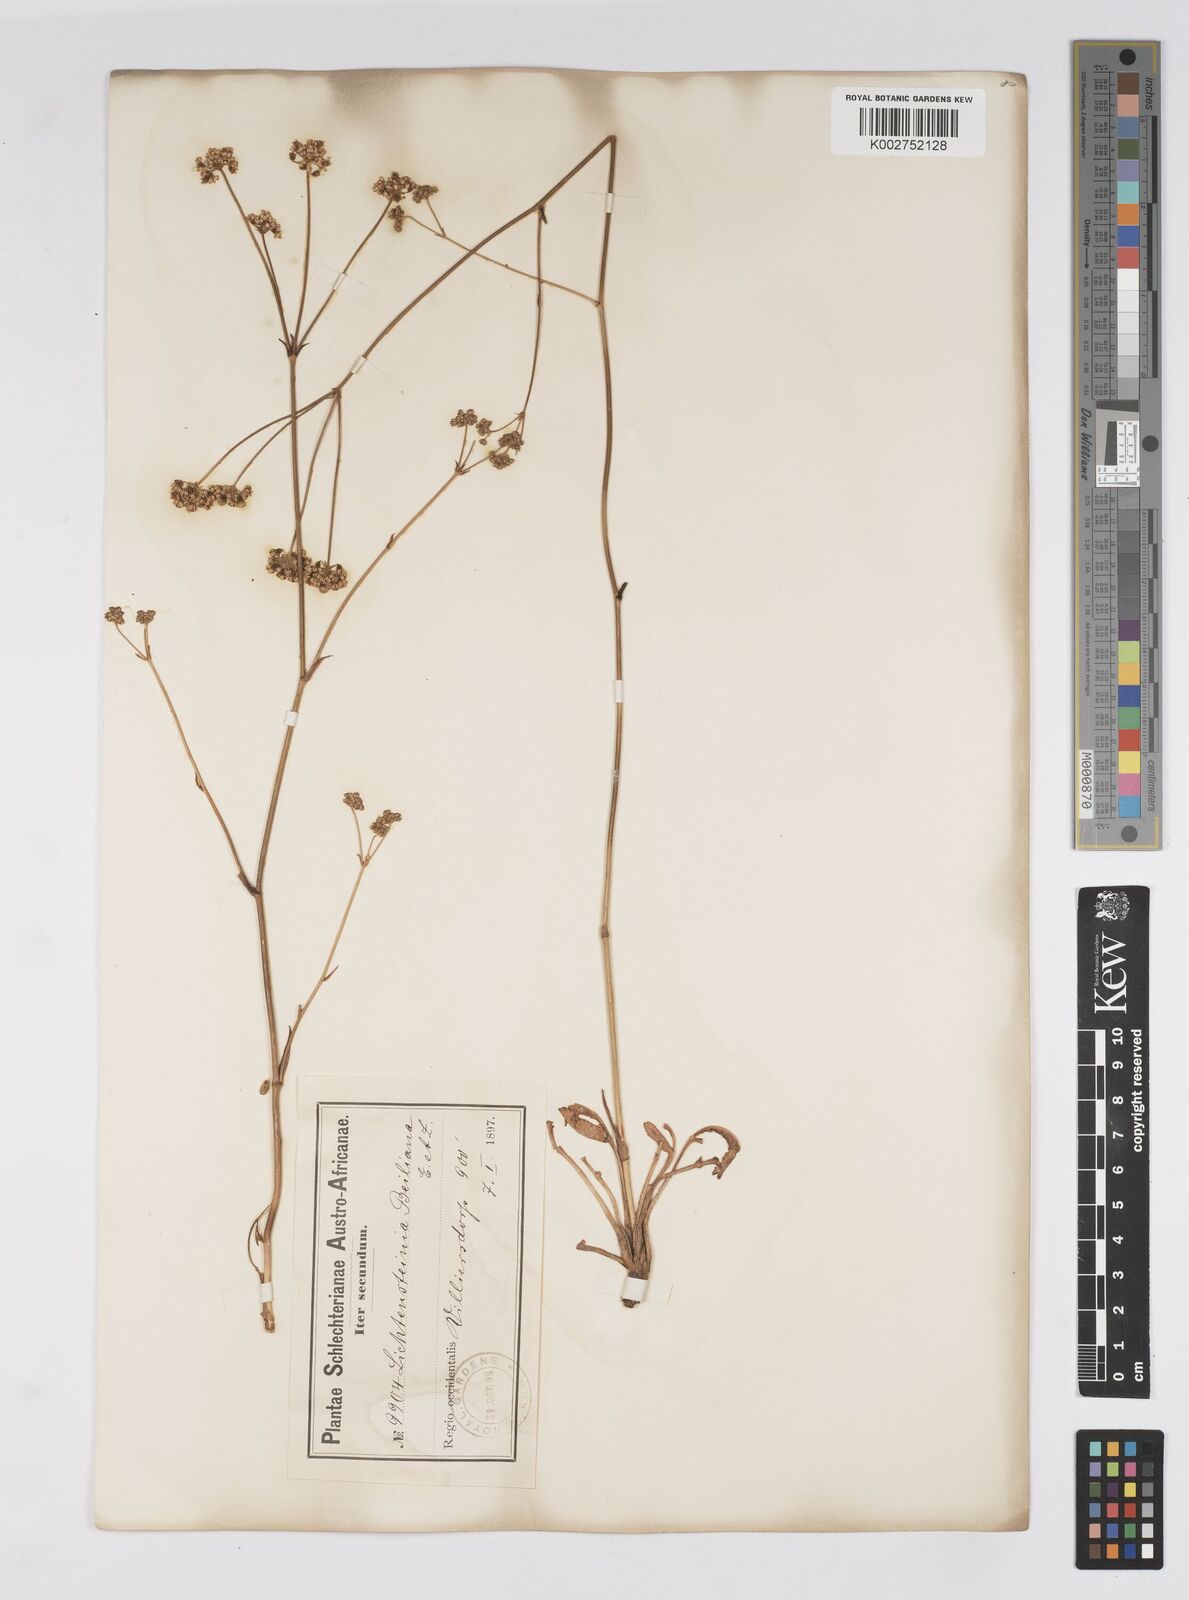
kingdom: Plantae
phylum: Tracheophyta
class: Magnoliopsida
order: Apiales
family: Apiaceae
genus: Lichtensteinia
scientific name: Lichtensteinia obscura
